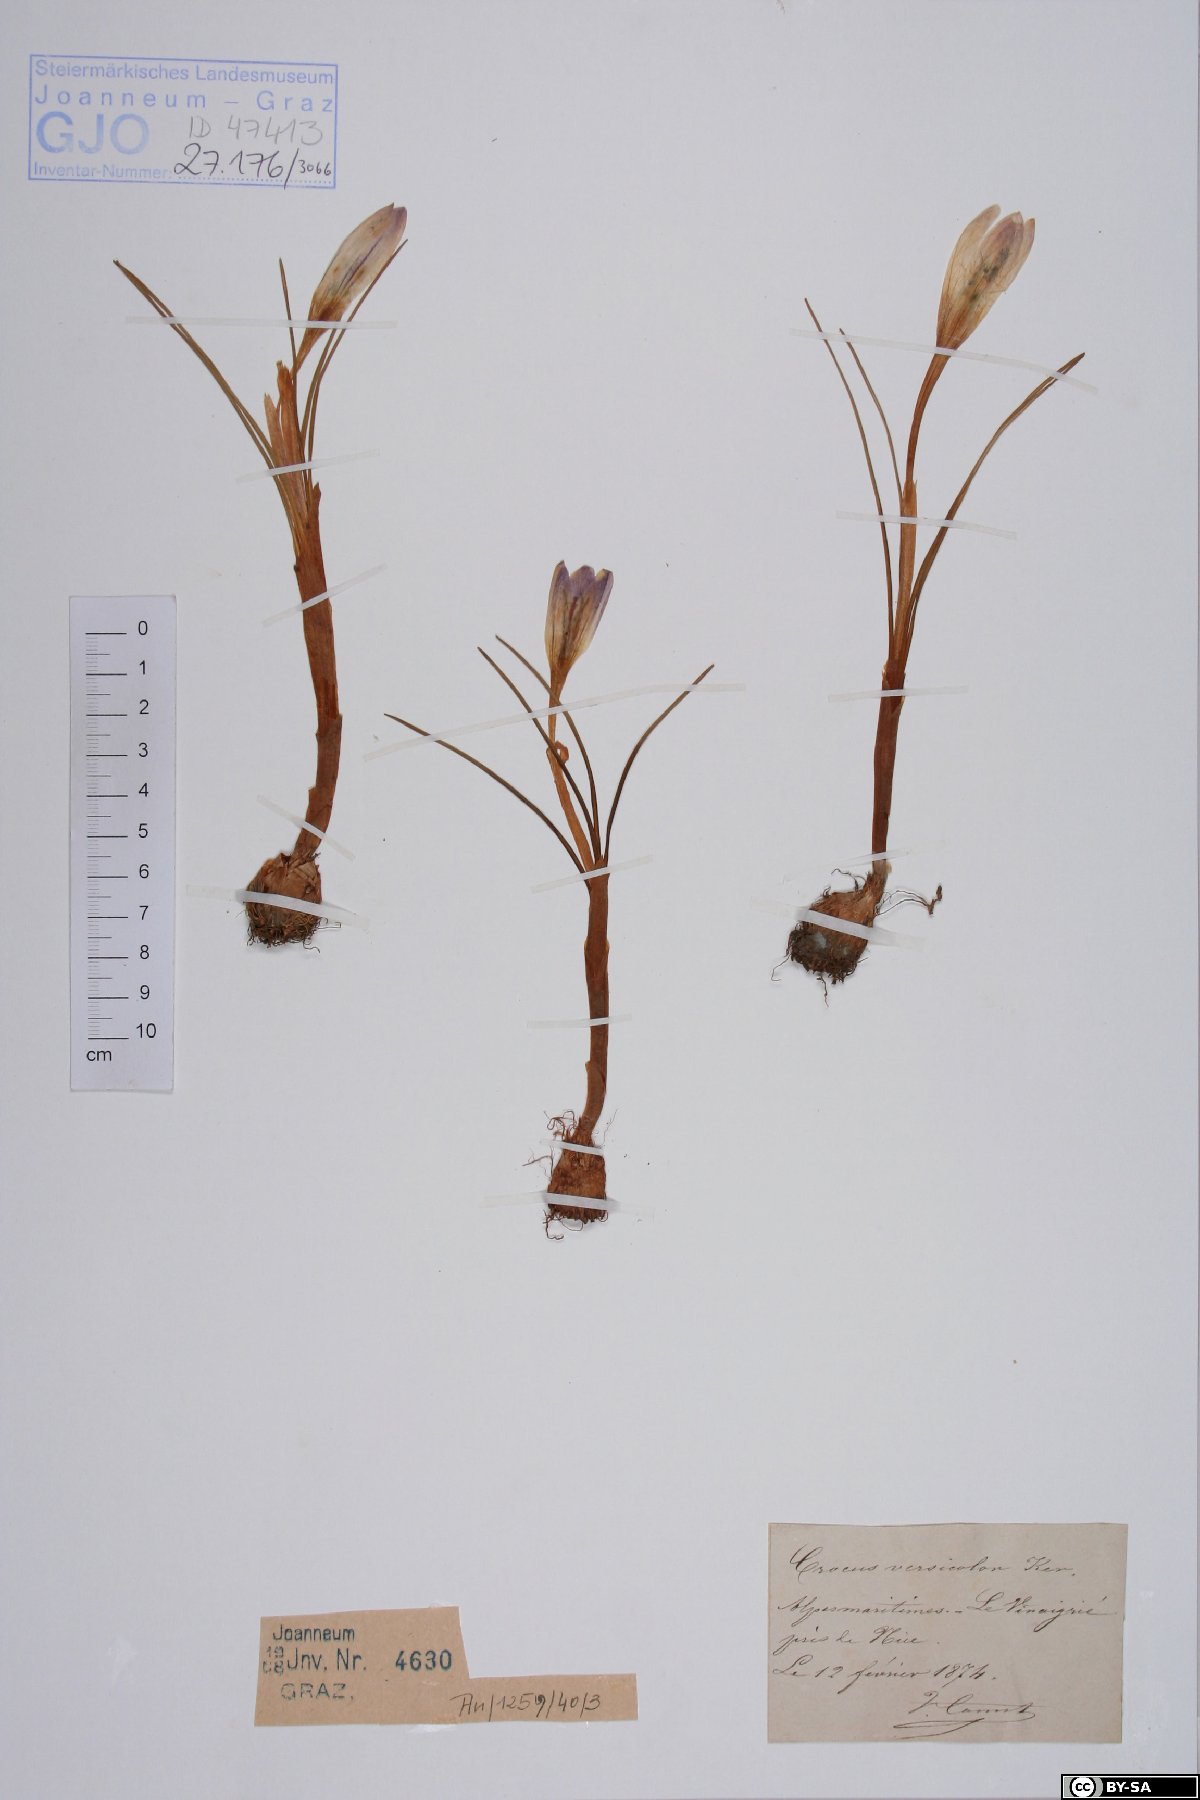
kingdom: Plantae
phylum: Tracheophyta
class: Liliopsida
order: Asparagales
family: Iridaceae
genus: Crocus
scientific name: Crocus versicolor
